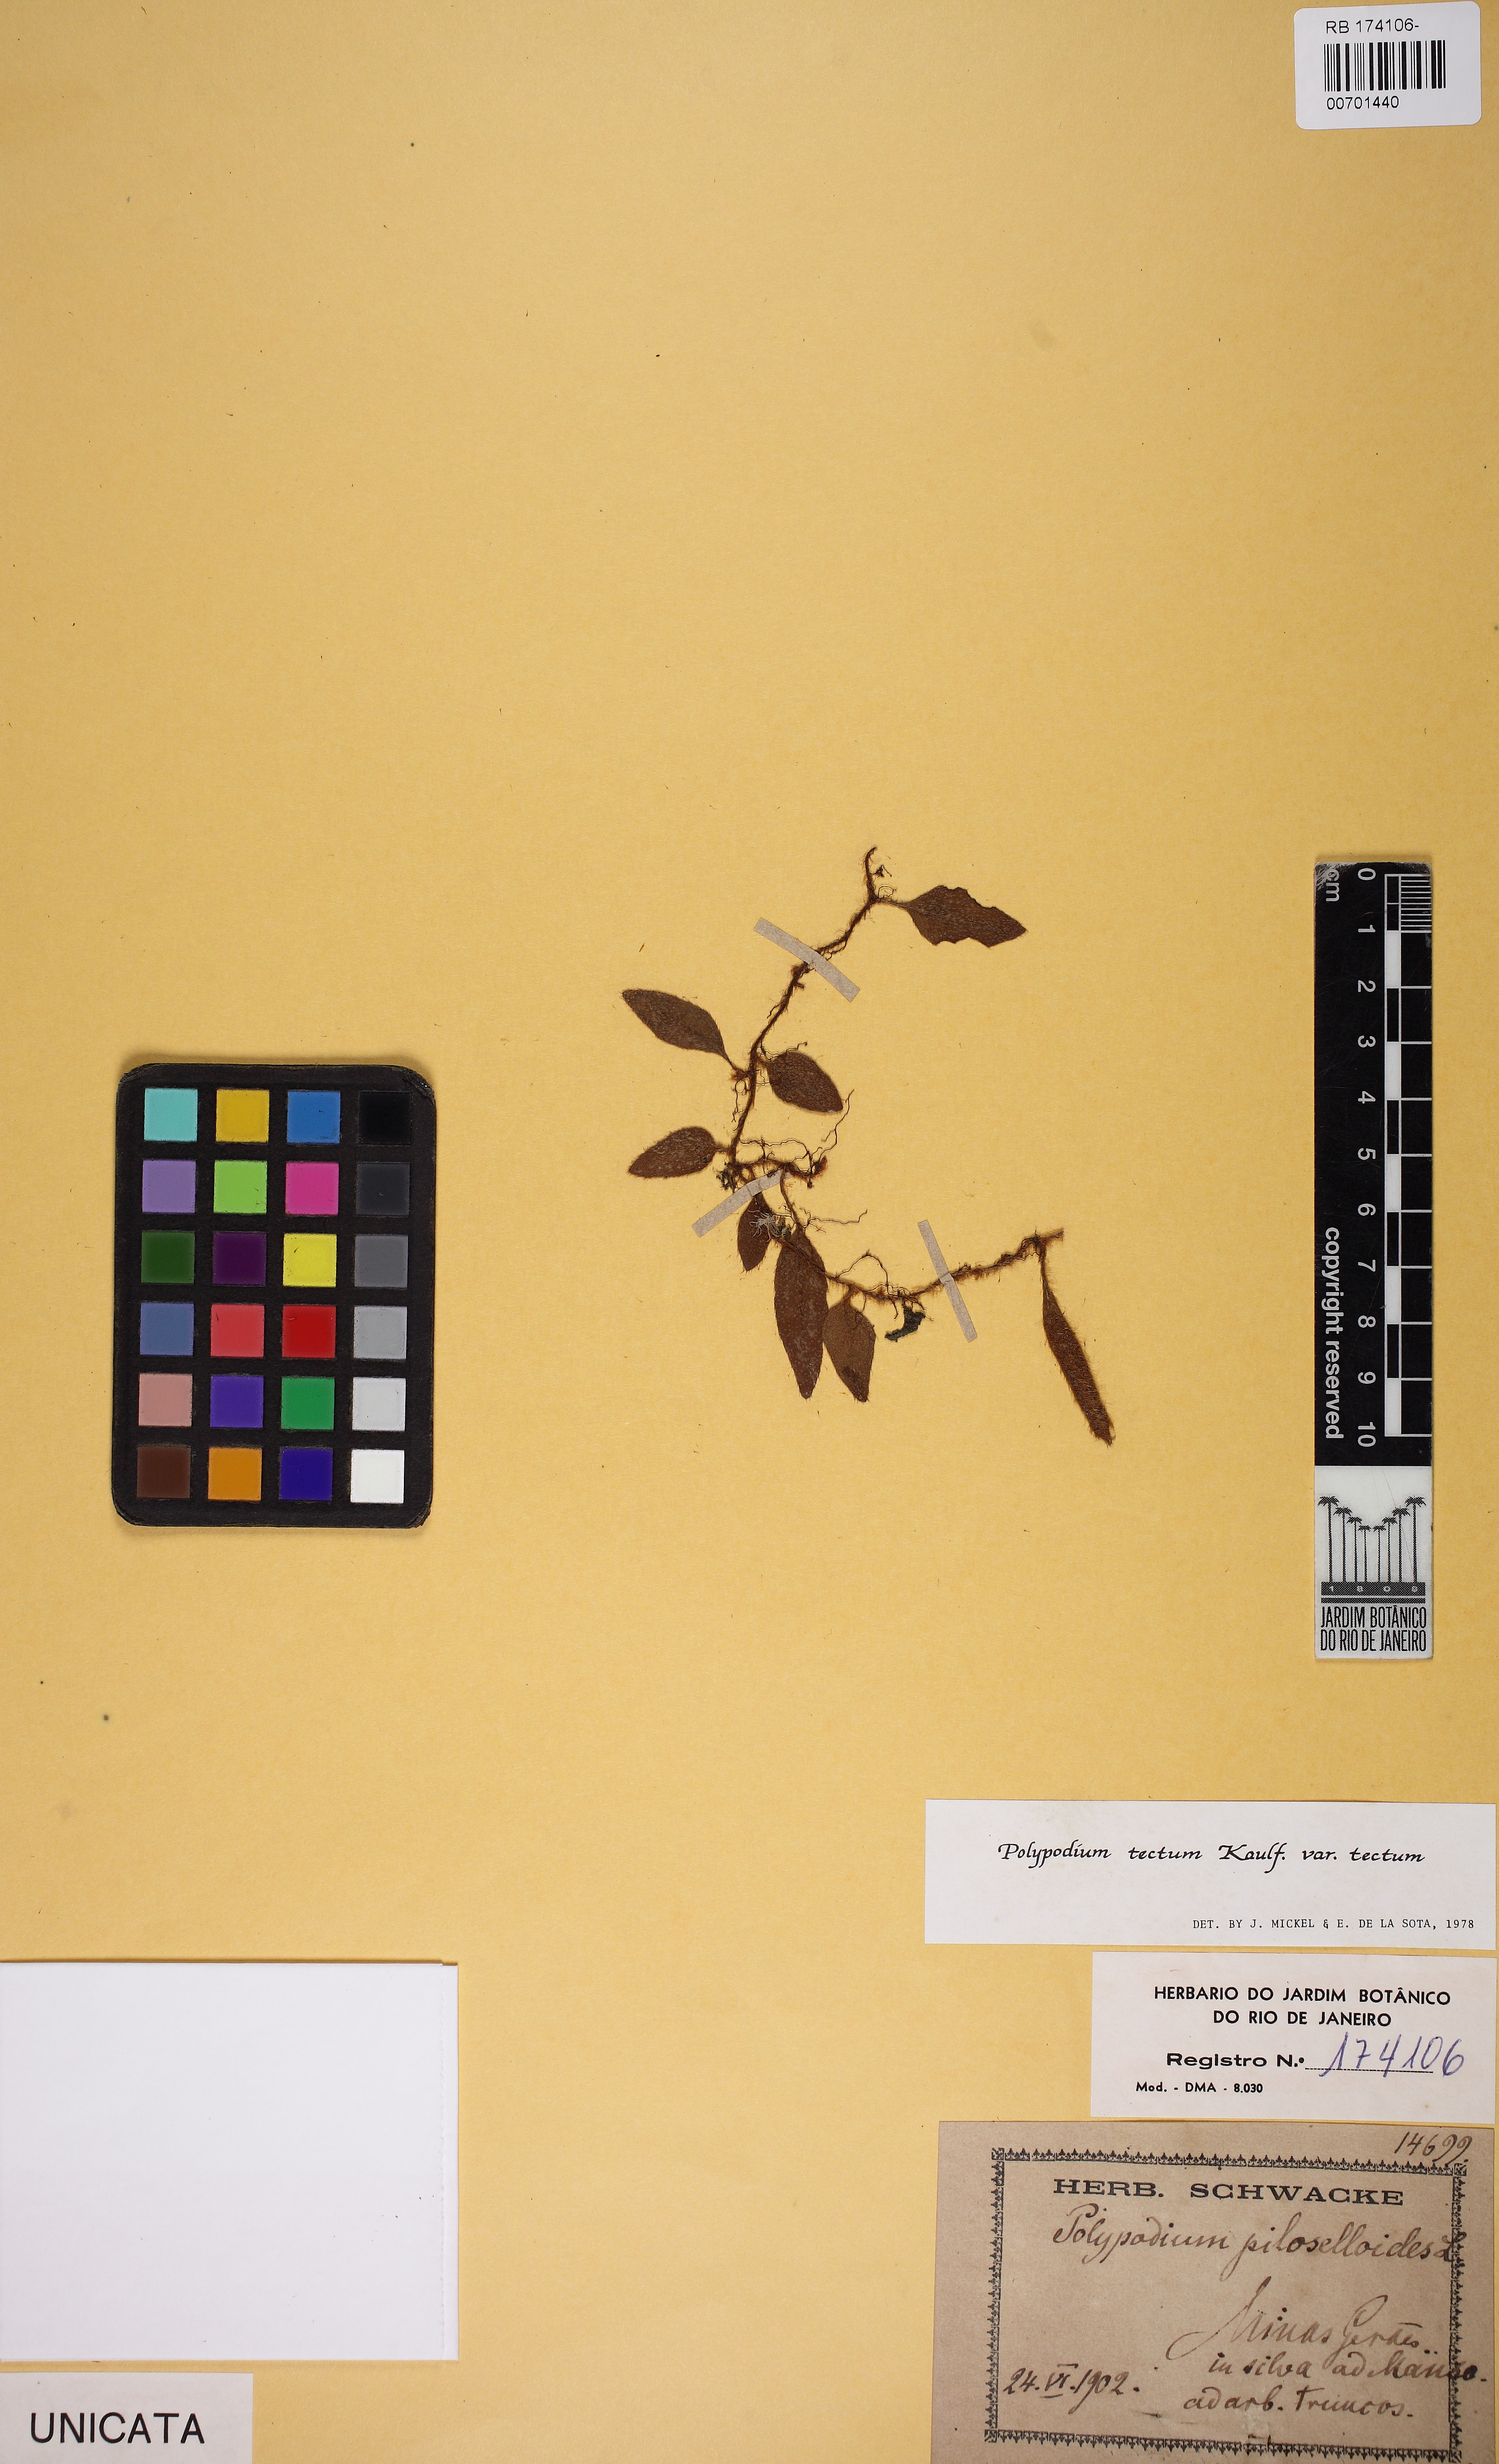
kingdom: Plantae
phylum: Tracheophyta
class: Polypodiopsida
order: Polypodiales
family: Polypodiaceae
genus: Microgramma
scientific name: Microgramma tecta
